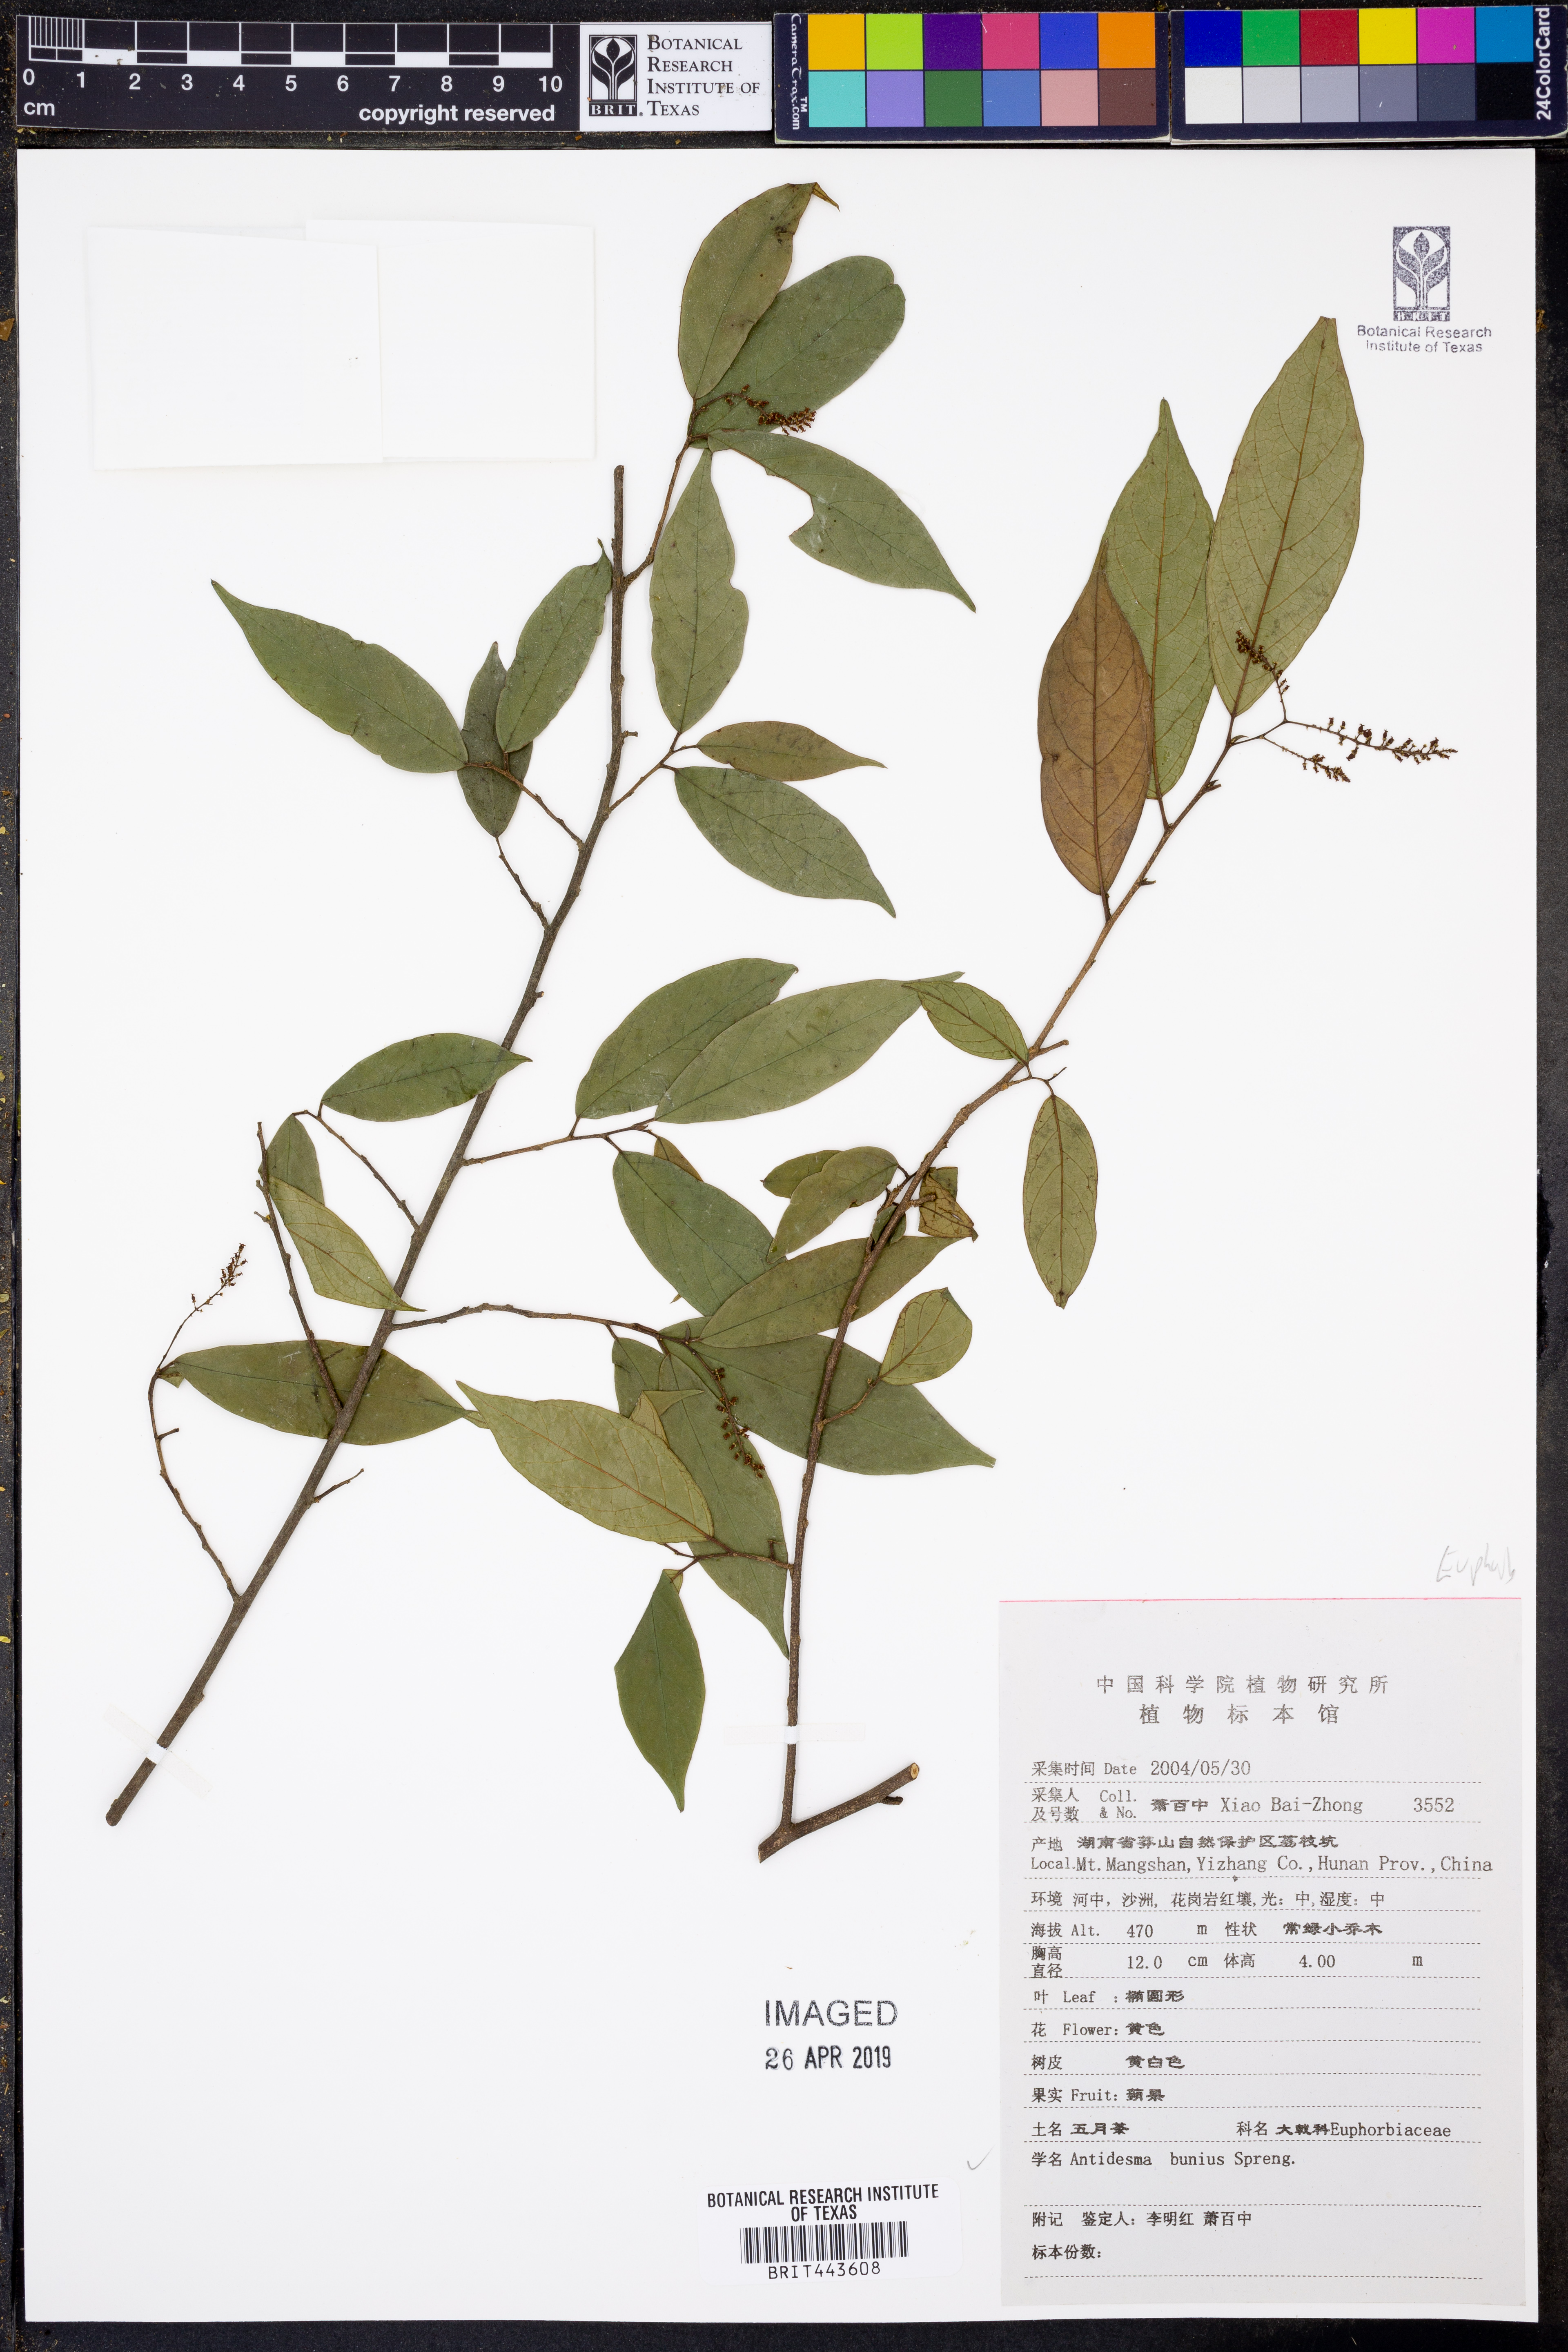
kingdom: Plantae
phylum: Tracheophyta
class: Magnoliopsida
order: Malpighiales
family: Phyllanthaceae
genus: Antidesma
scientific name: Antidesma
